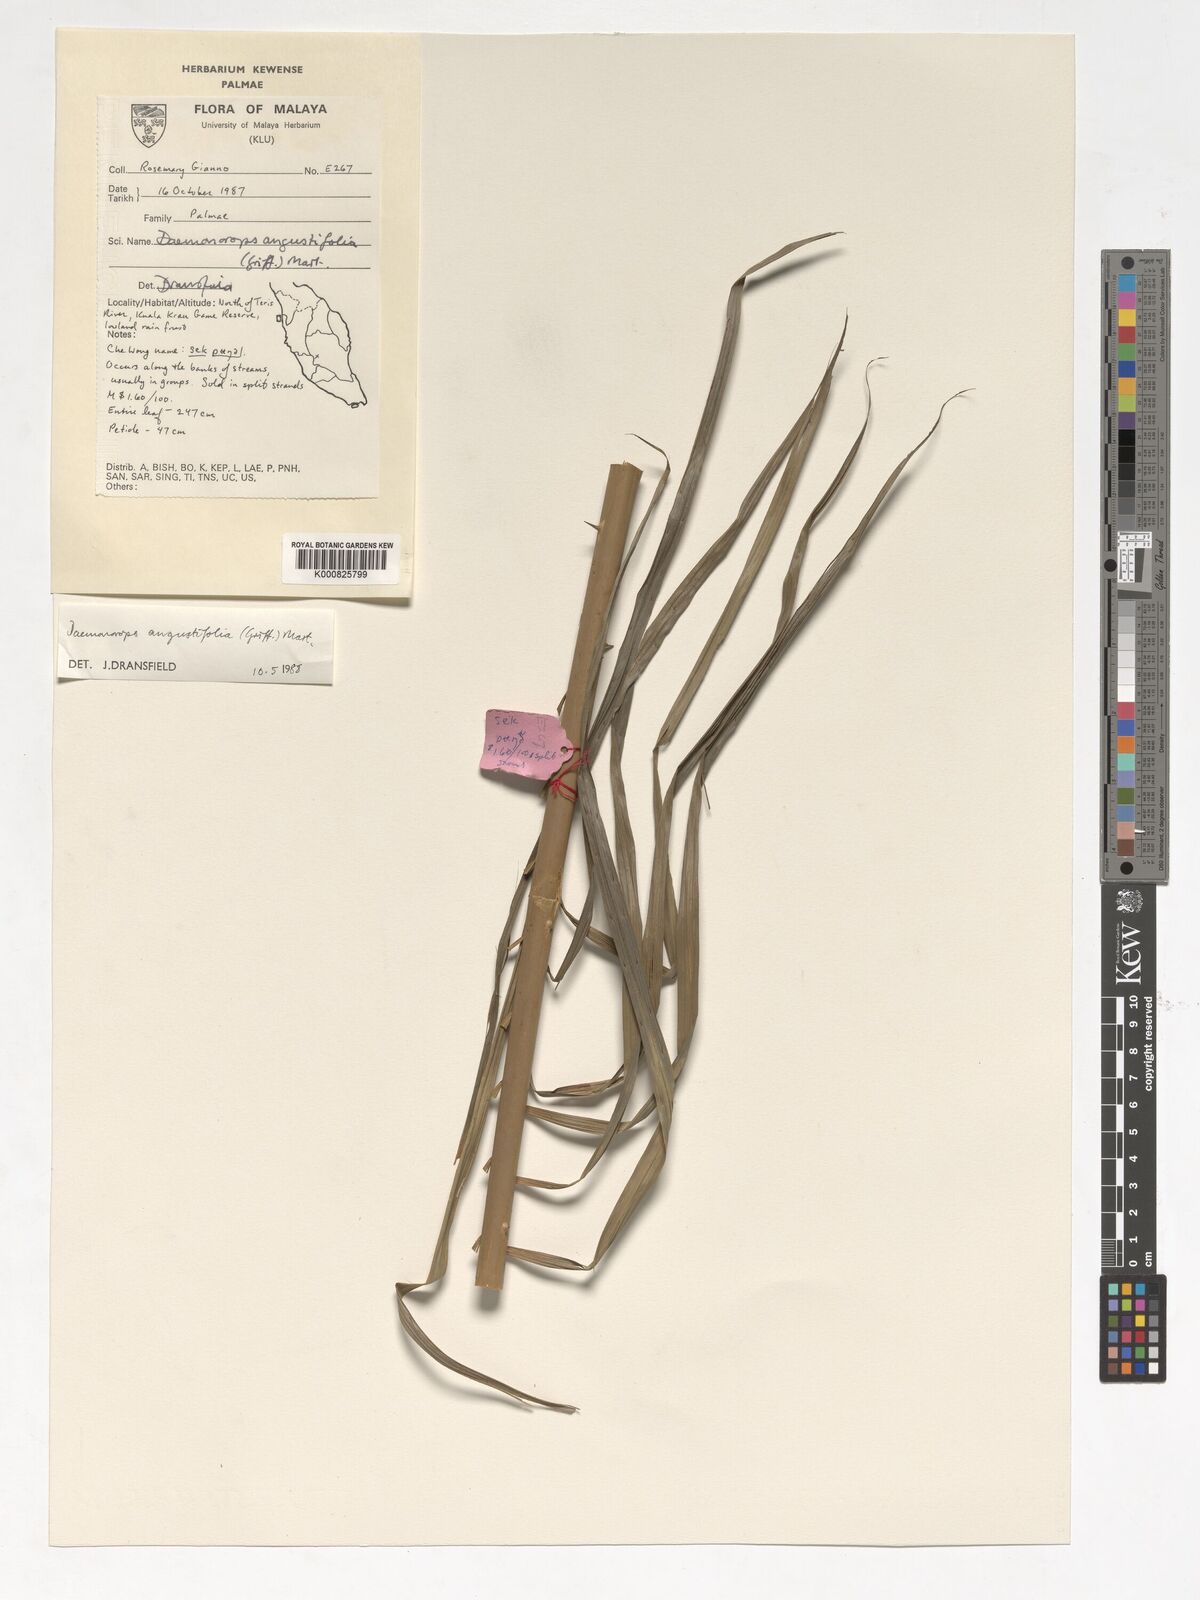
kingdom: Plantae
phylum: Tracheophyta
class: Liliopsida
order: Arecales
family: Arecaceae
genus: Calamus
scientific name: Calamus melanochaetes
